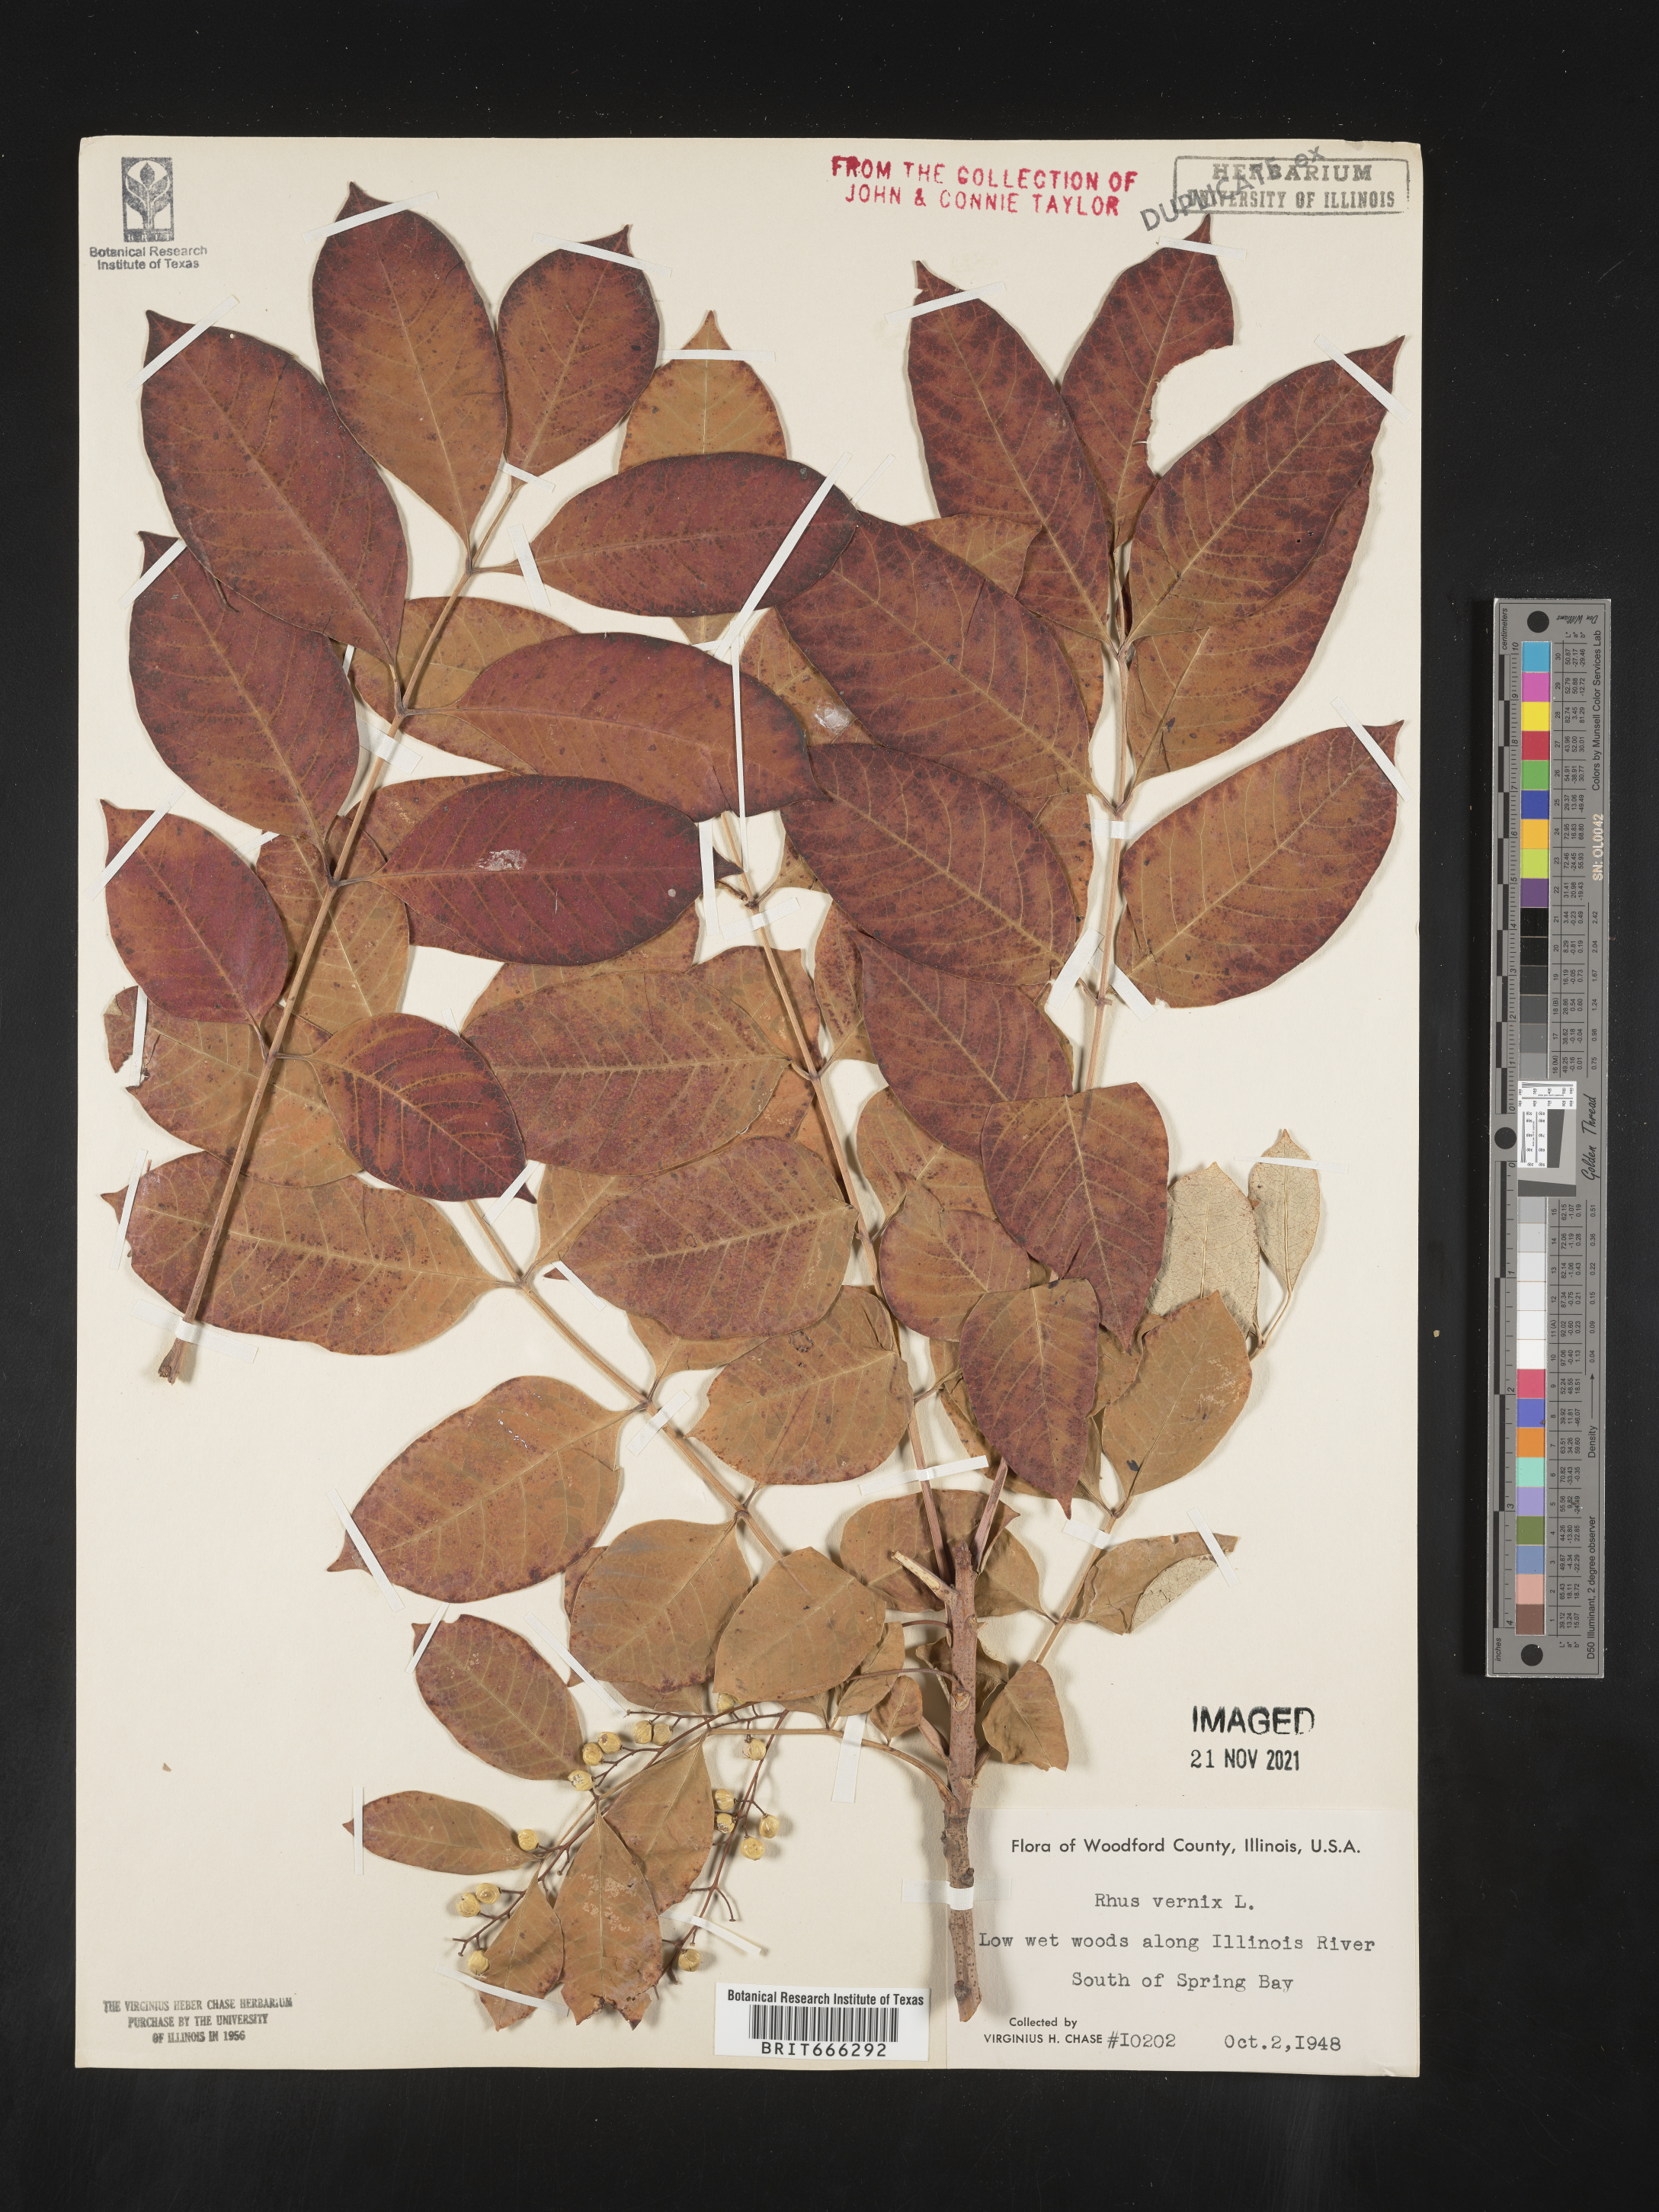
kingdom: Plantae
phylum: Tracheophyta
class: Magnoliopsida
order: Sapindales
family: Anacardiaceae
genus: Toxicodendron
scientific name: Toxicodendron vernix
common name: Poison sumac
